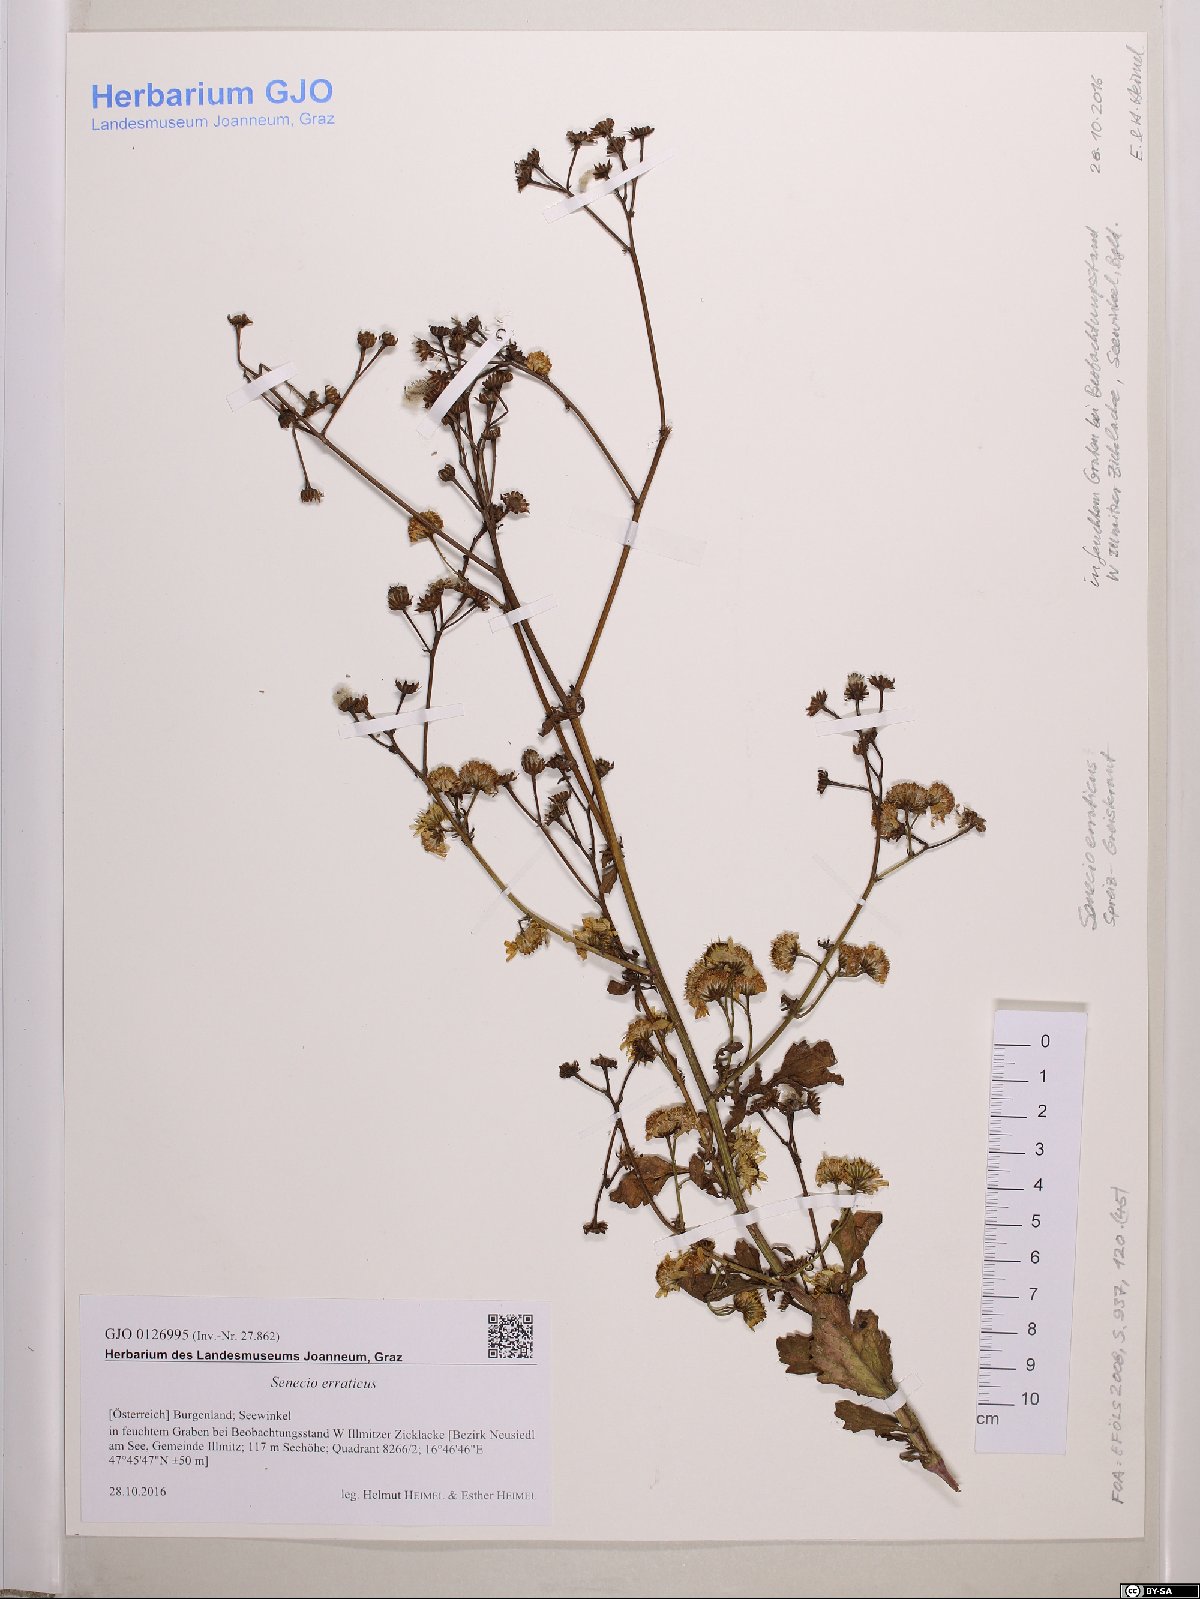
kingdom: Plantae
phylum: Tracheophyta
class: Magnoliopsida
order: Asterales
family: Asteraceae
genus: Jacobaea
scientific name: Jacobaea erratica
